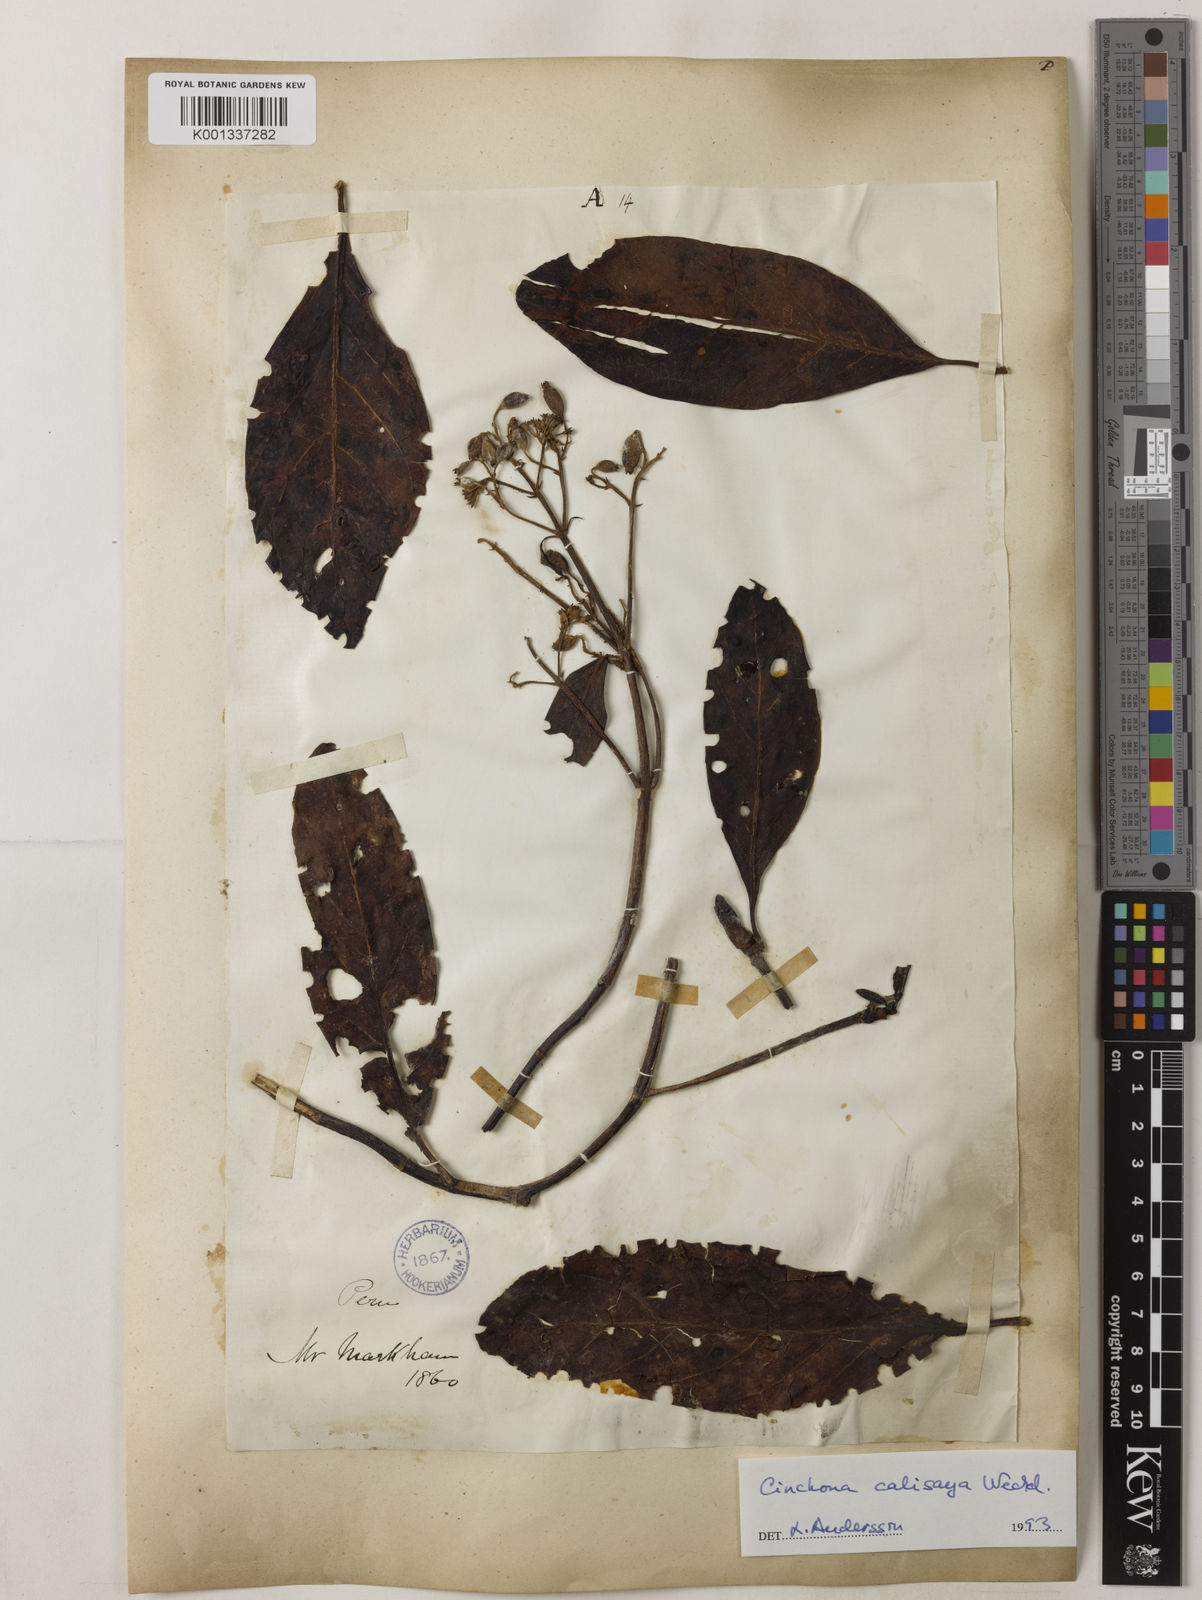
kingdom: Plantae
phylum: Tracheophyta
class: Magnoliopsida
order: Gentianales
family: Rubiaceae
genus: Cinchona
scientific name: Cinchona calisaya
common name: Ledgerbark
